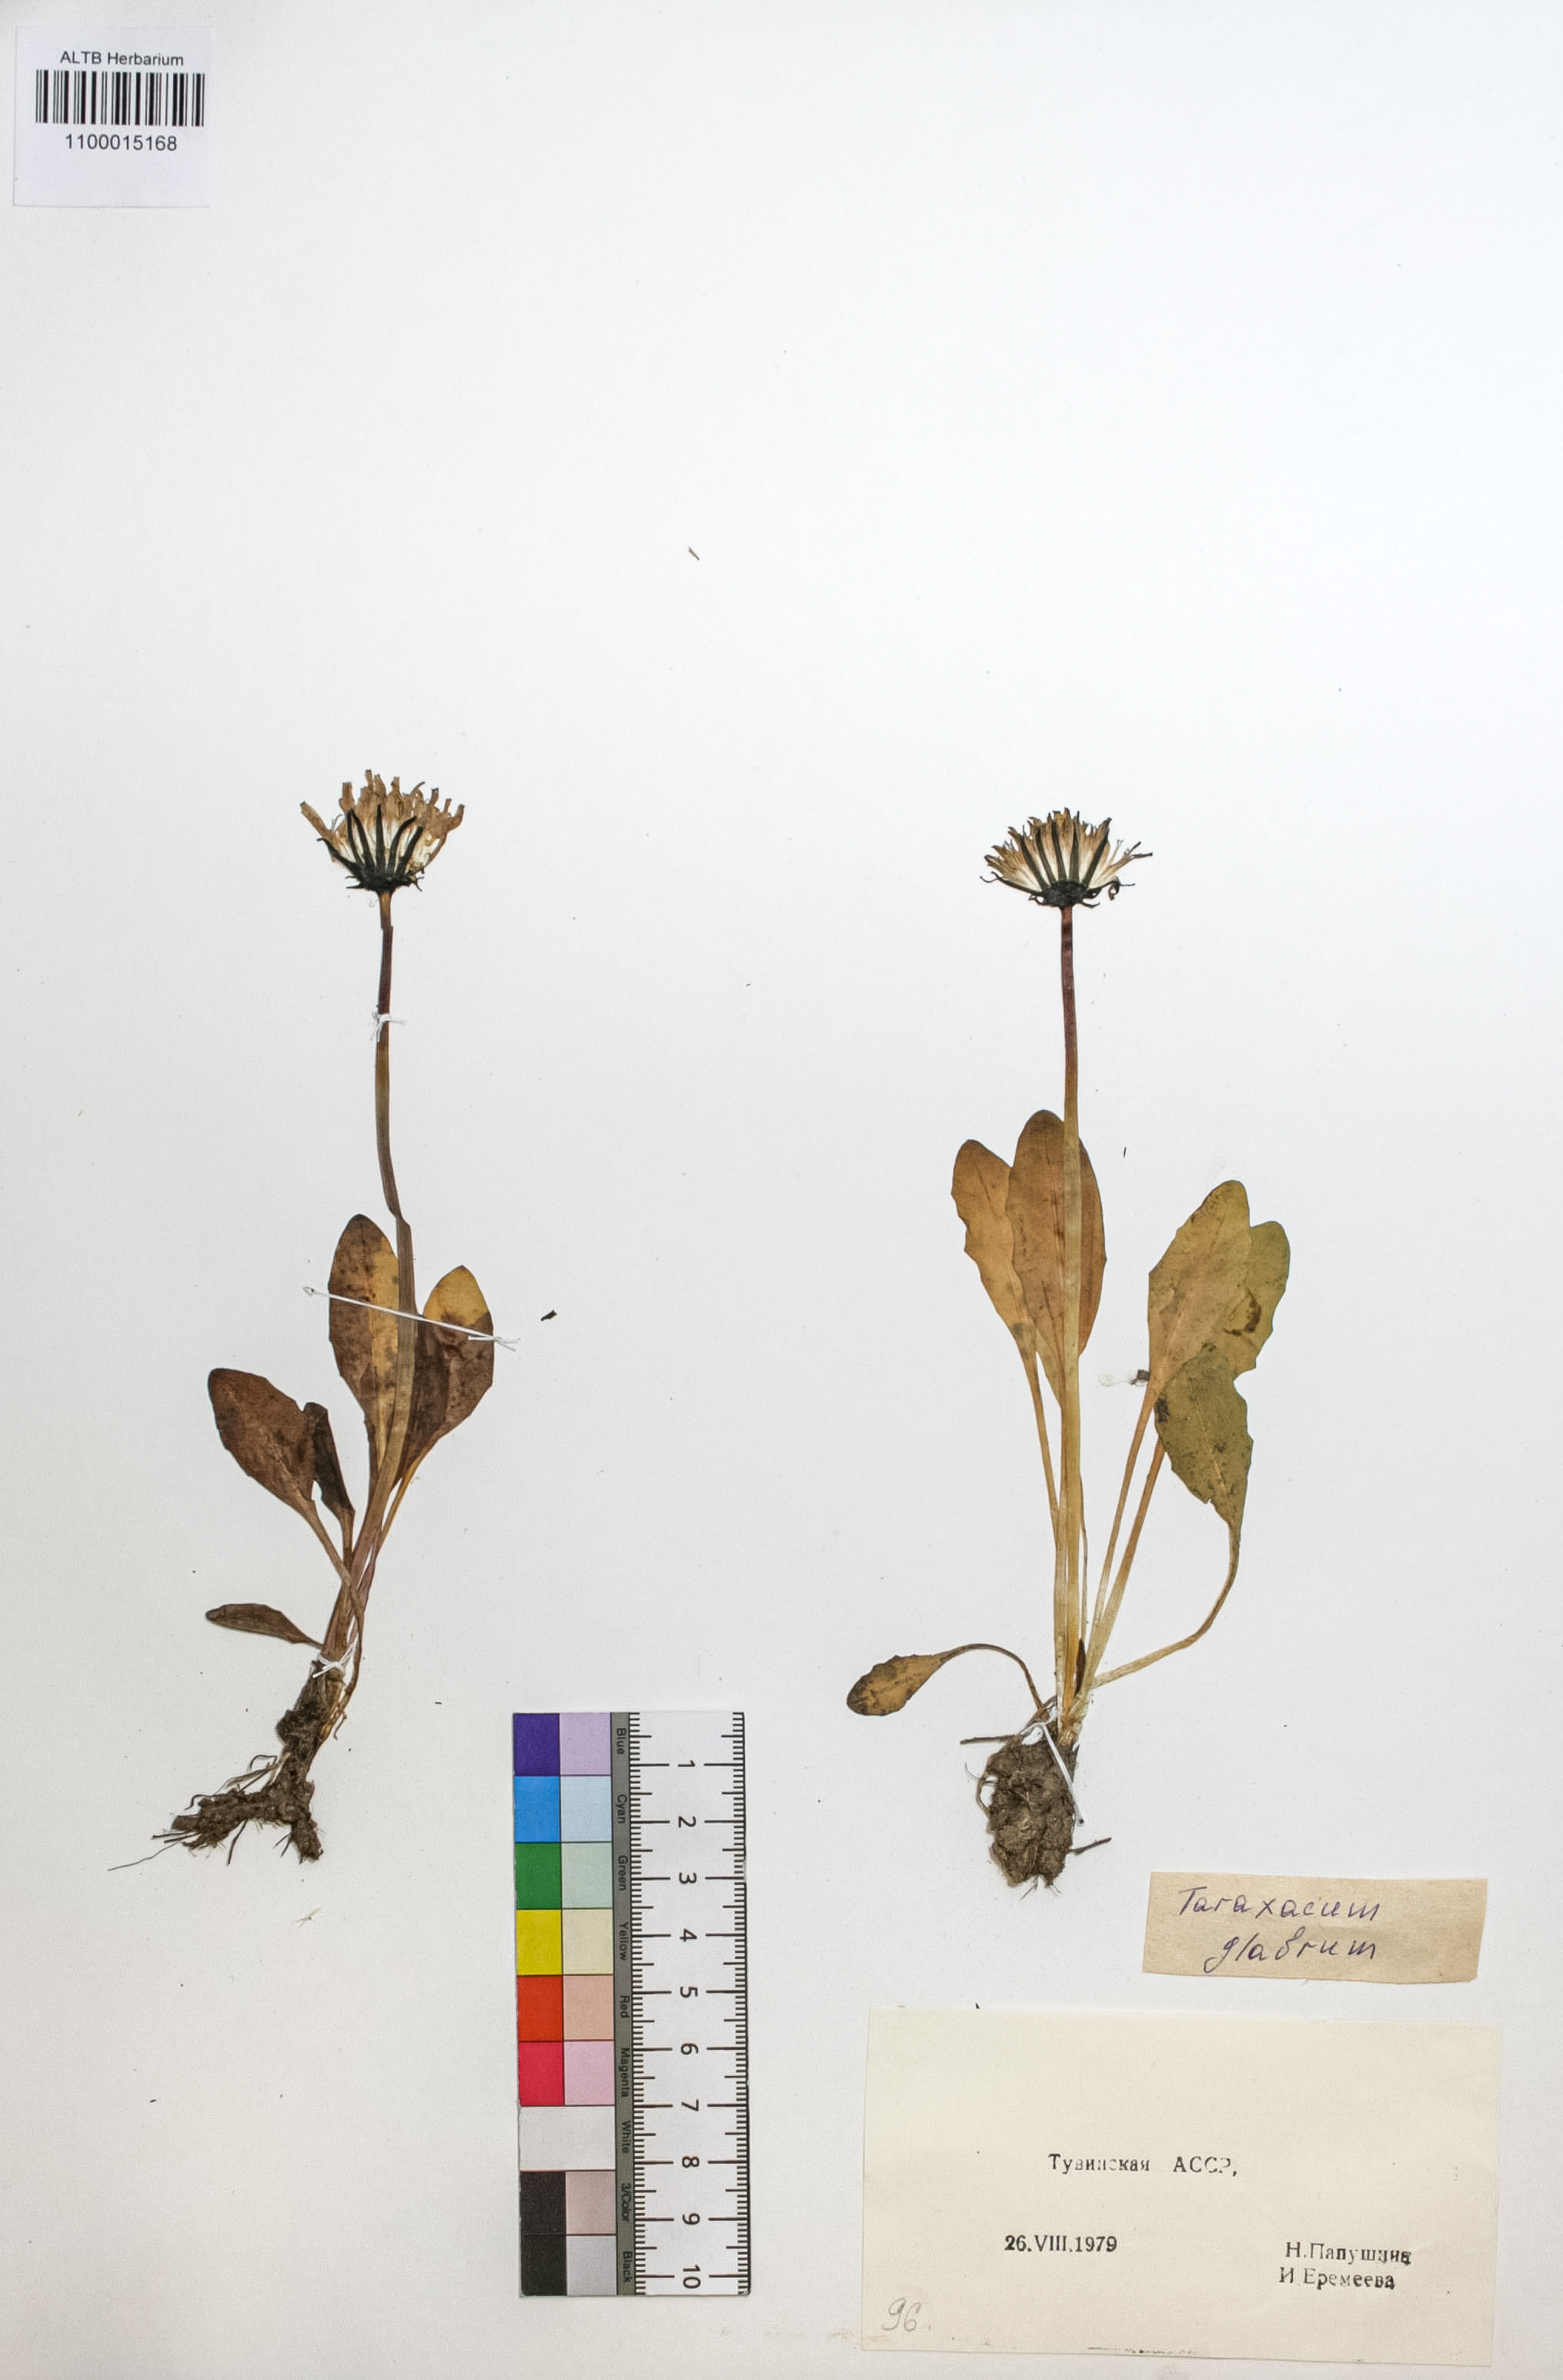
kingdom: Plantae
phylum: Tracheophyta
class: Magnoliopsida
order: Asterales
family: Asteraceae
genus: Taraxacum
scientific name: Taraxacum glabrum
